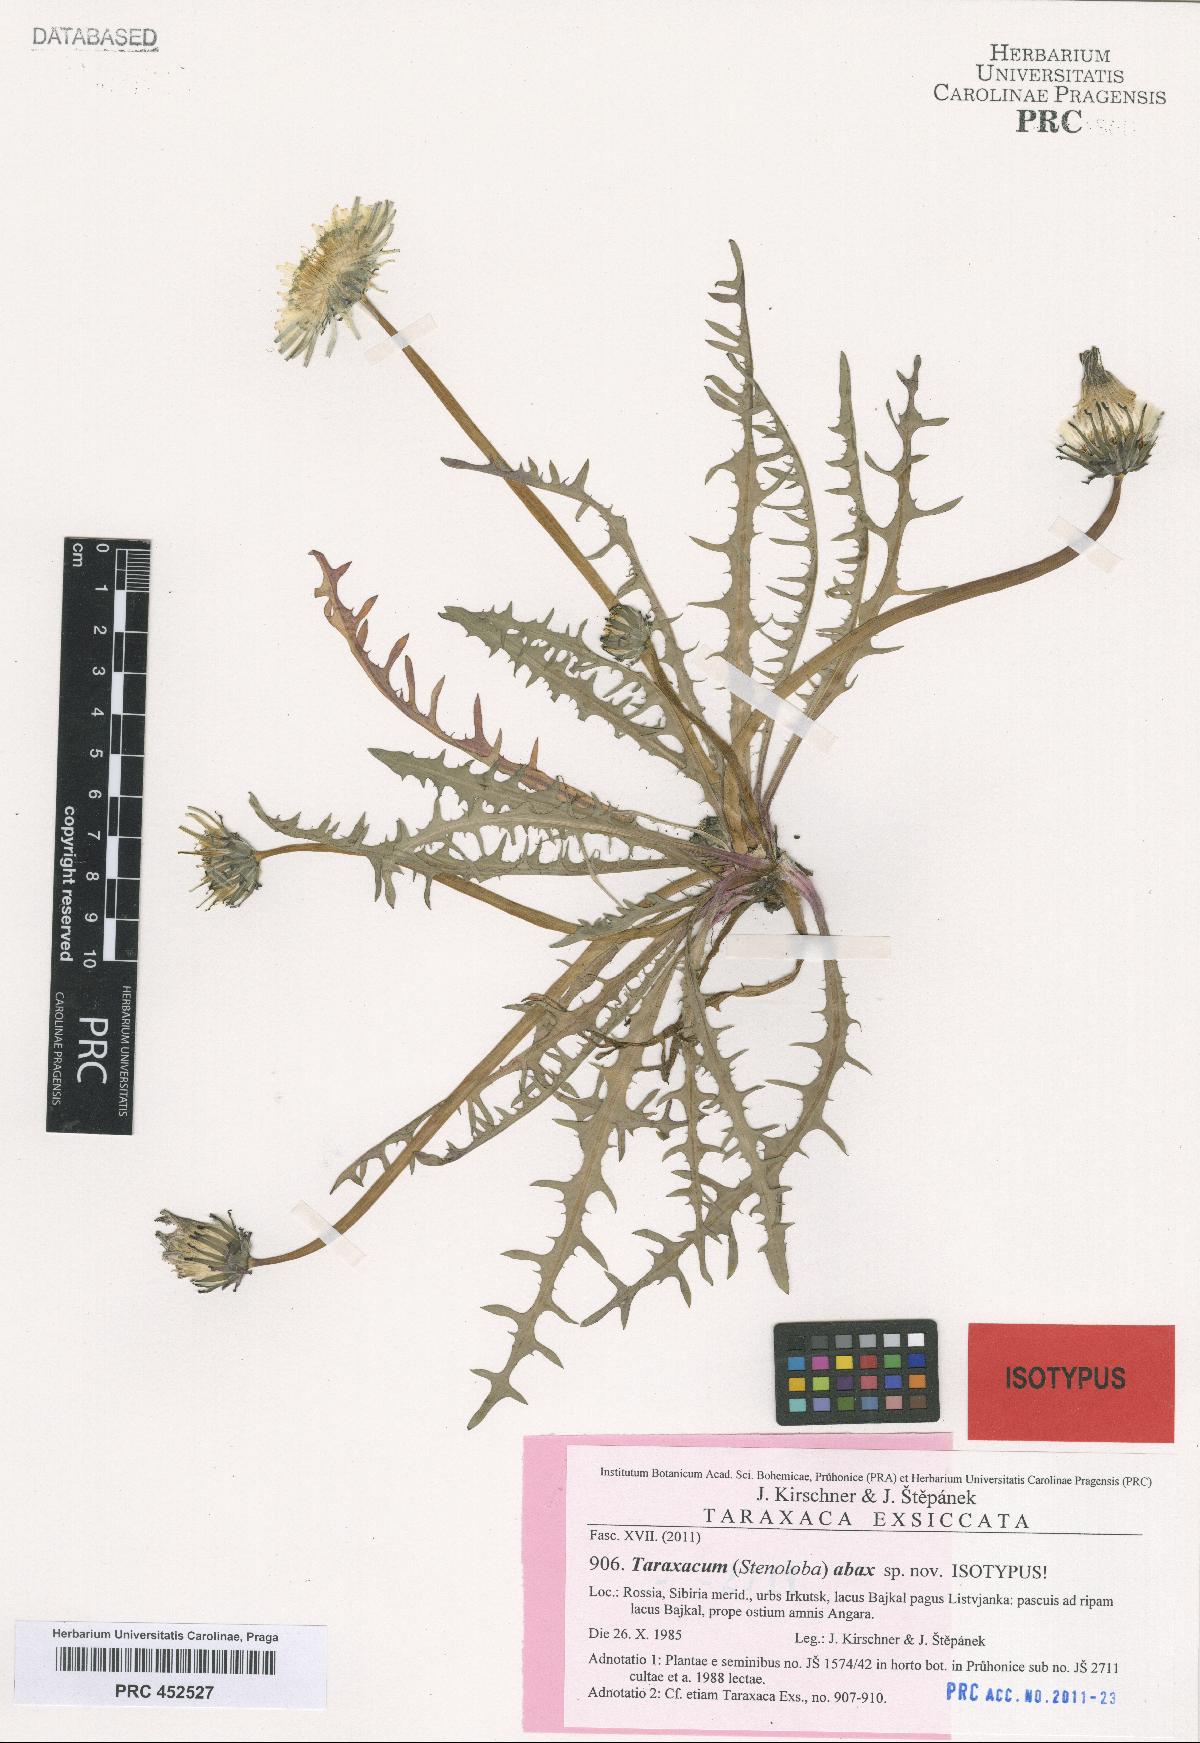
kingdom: Plantae
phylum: Tracheophyta
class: Magnoliopsida
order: Asterales
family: Asteraceae
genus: Taraxacum
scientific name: Taraxacum abax
